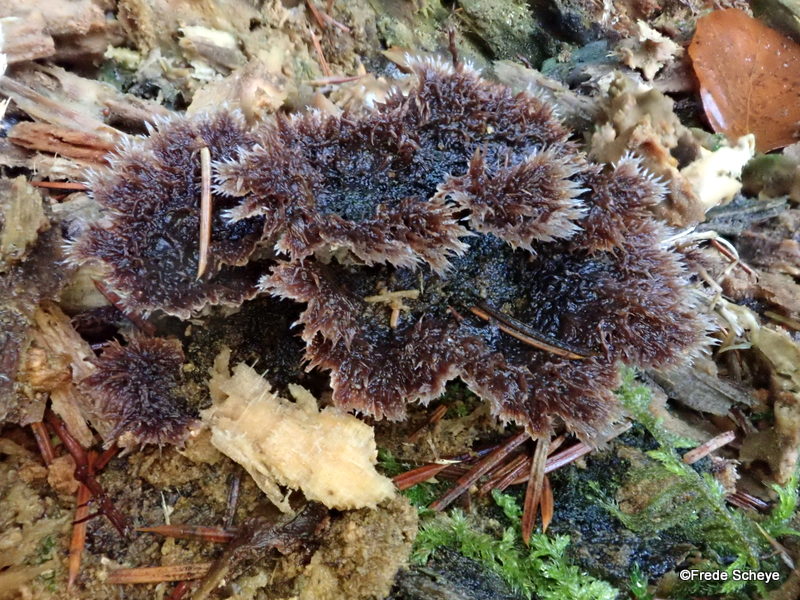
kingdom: Fungi
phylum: Basidiomycota
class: Agaricomycetes
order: Thelephorales
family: Thelephoraceae
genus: Thelephora
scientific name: Thelephora terrestris
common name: fliget frynsesvamp
